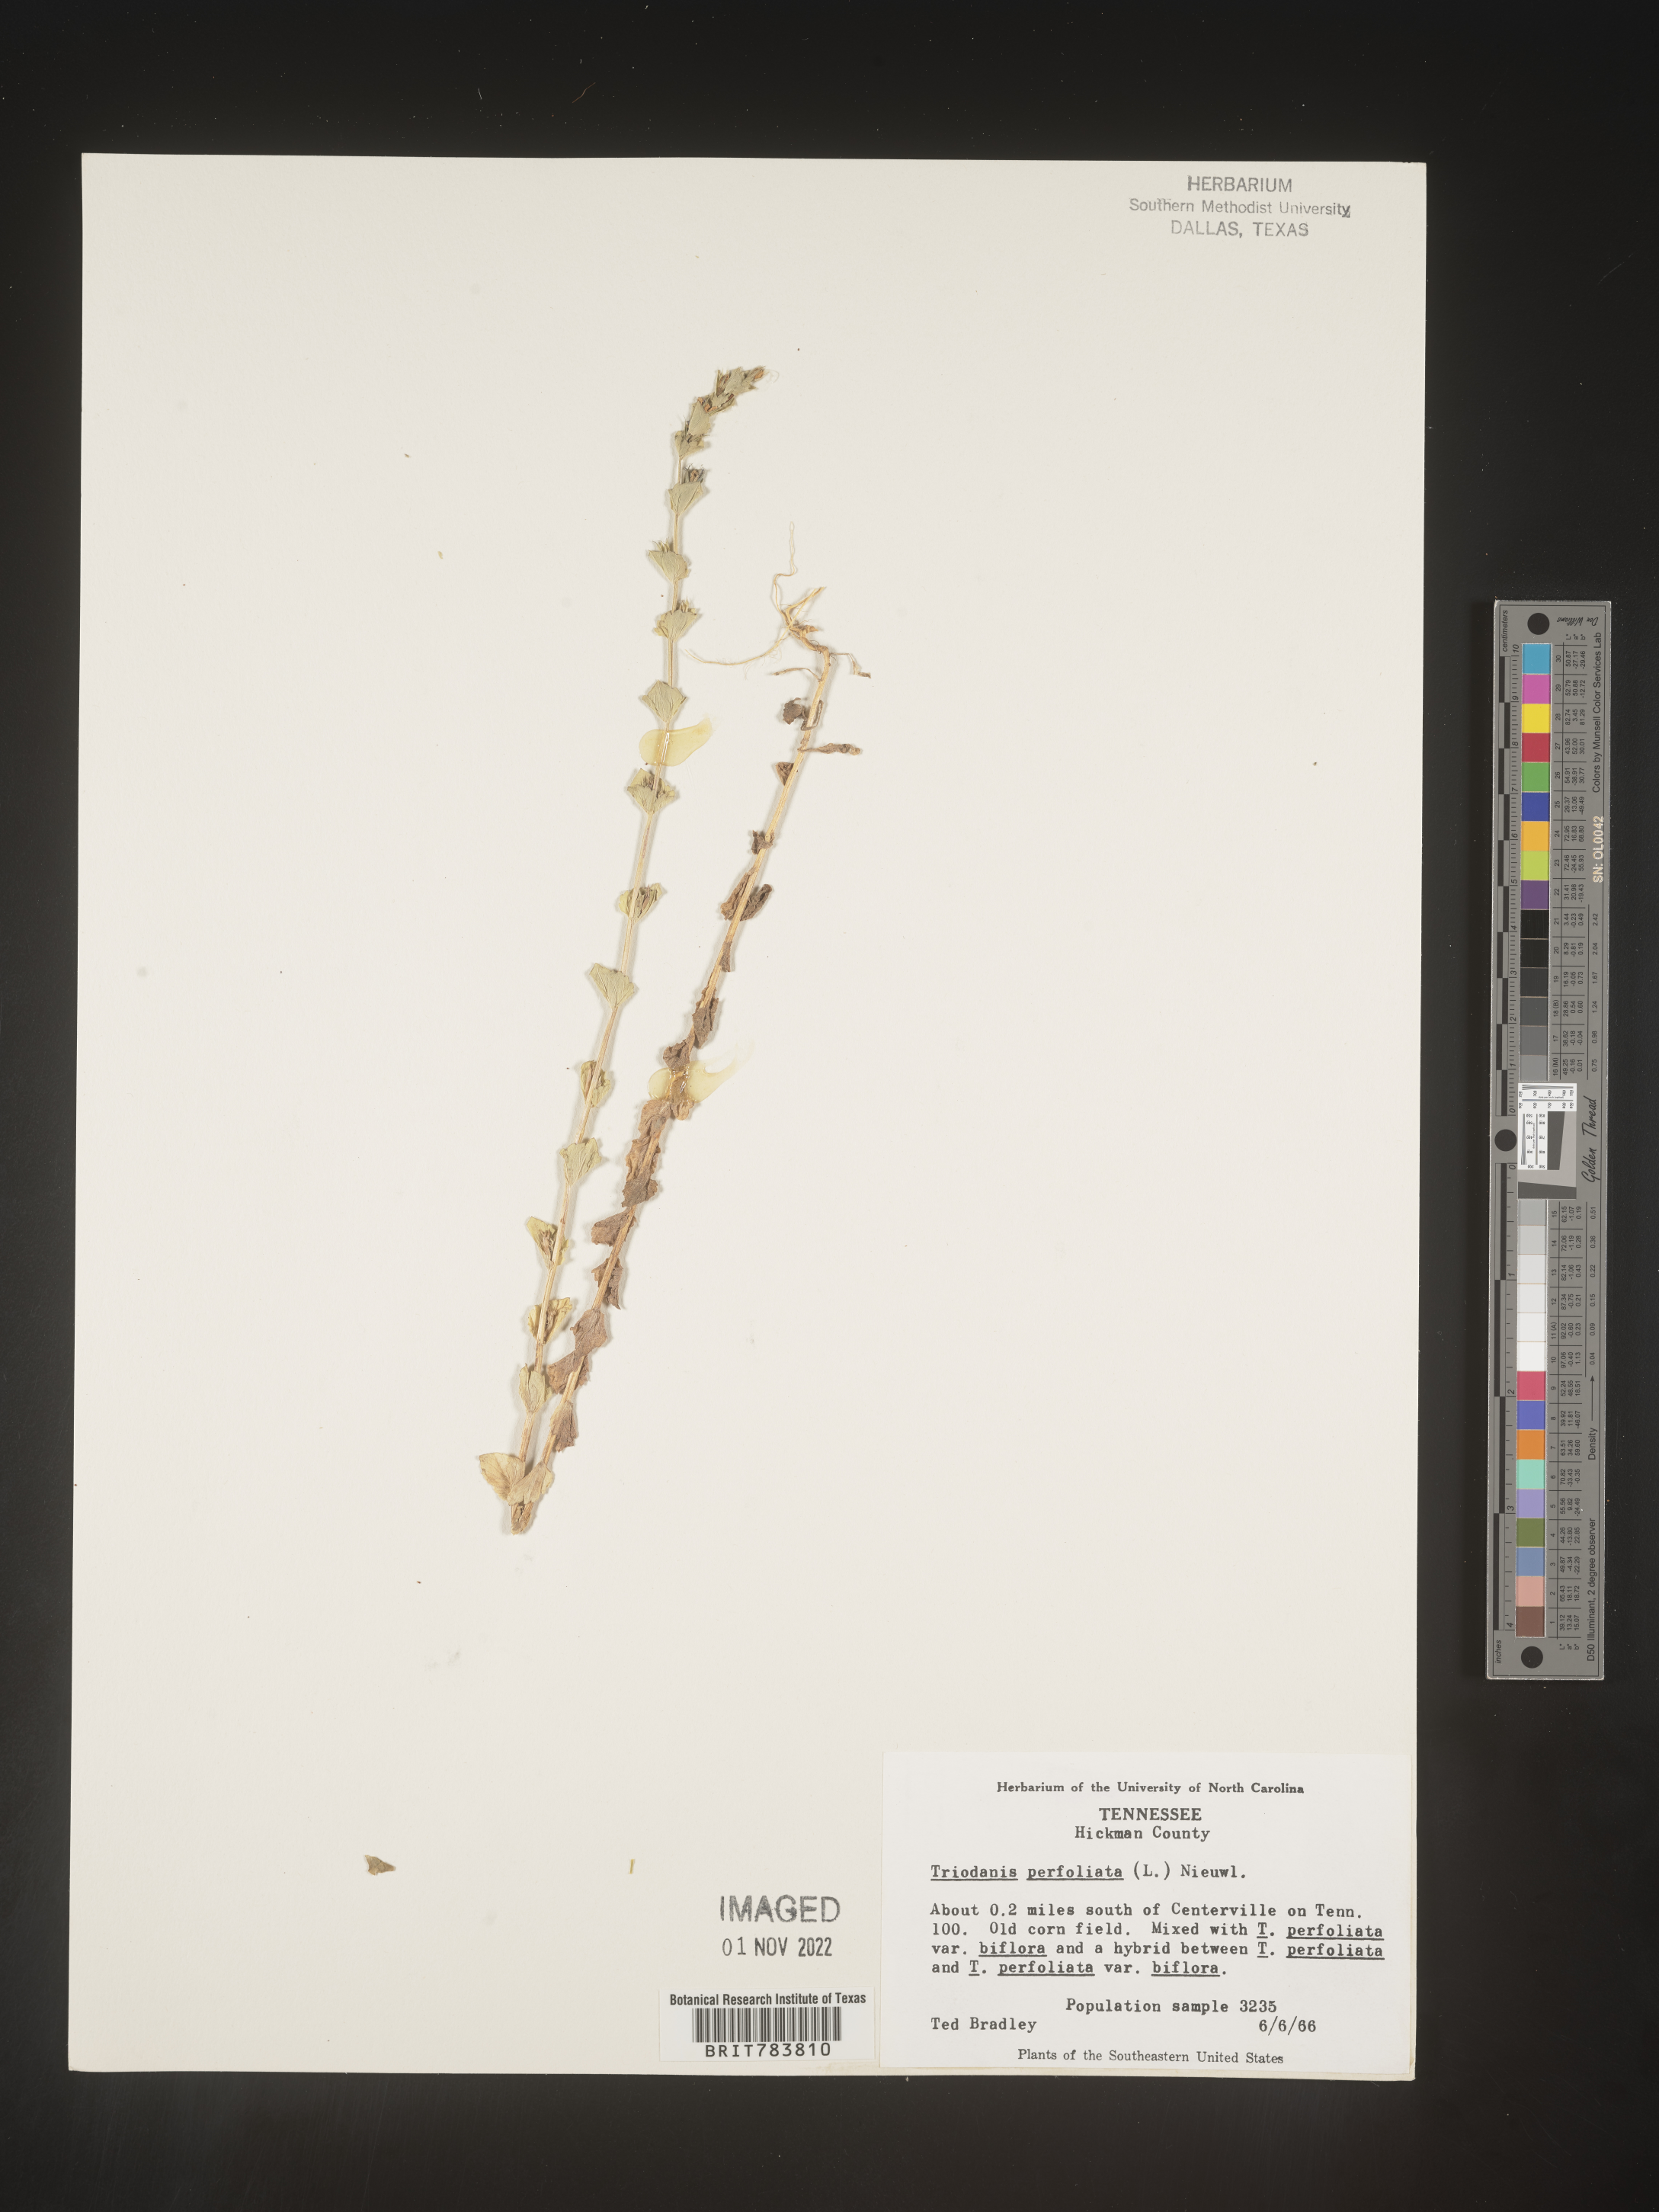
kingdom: Plantae
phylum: Tracheophyta
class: Magnoliopsida
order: Asterales
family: Campanulaceae
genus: Triodanis
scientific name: Triodanis perfoliata
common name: Clasping venus' looking-glass
